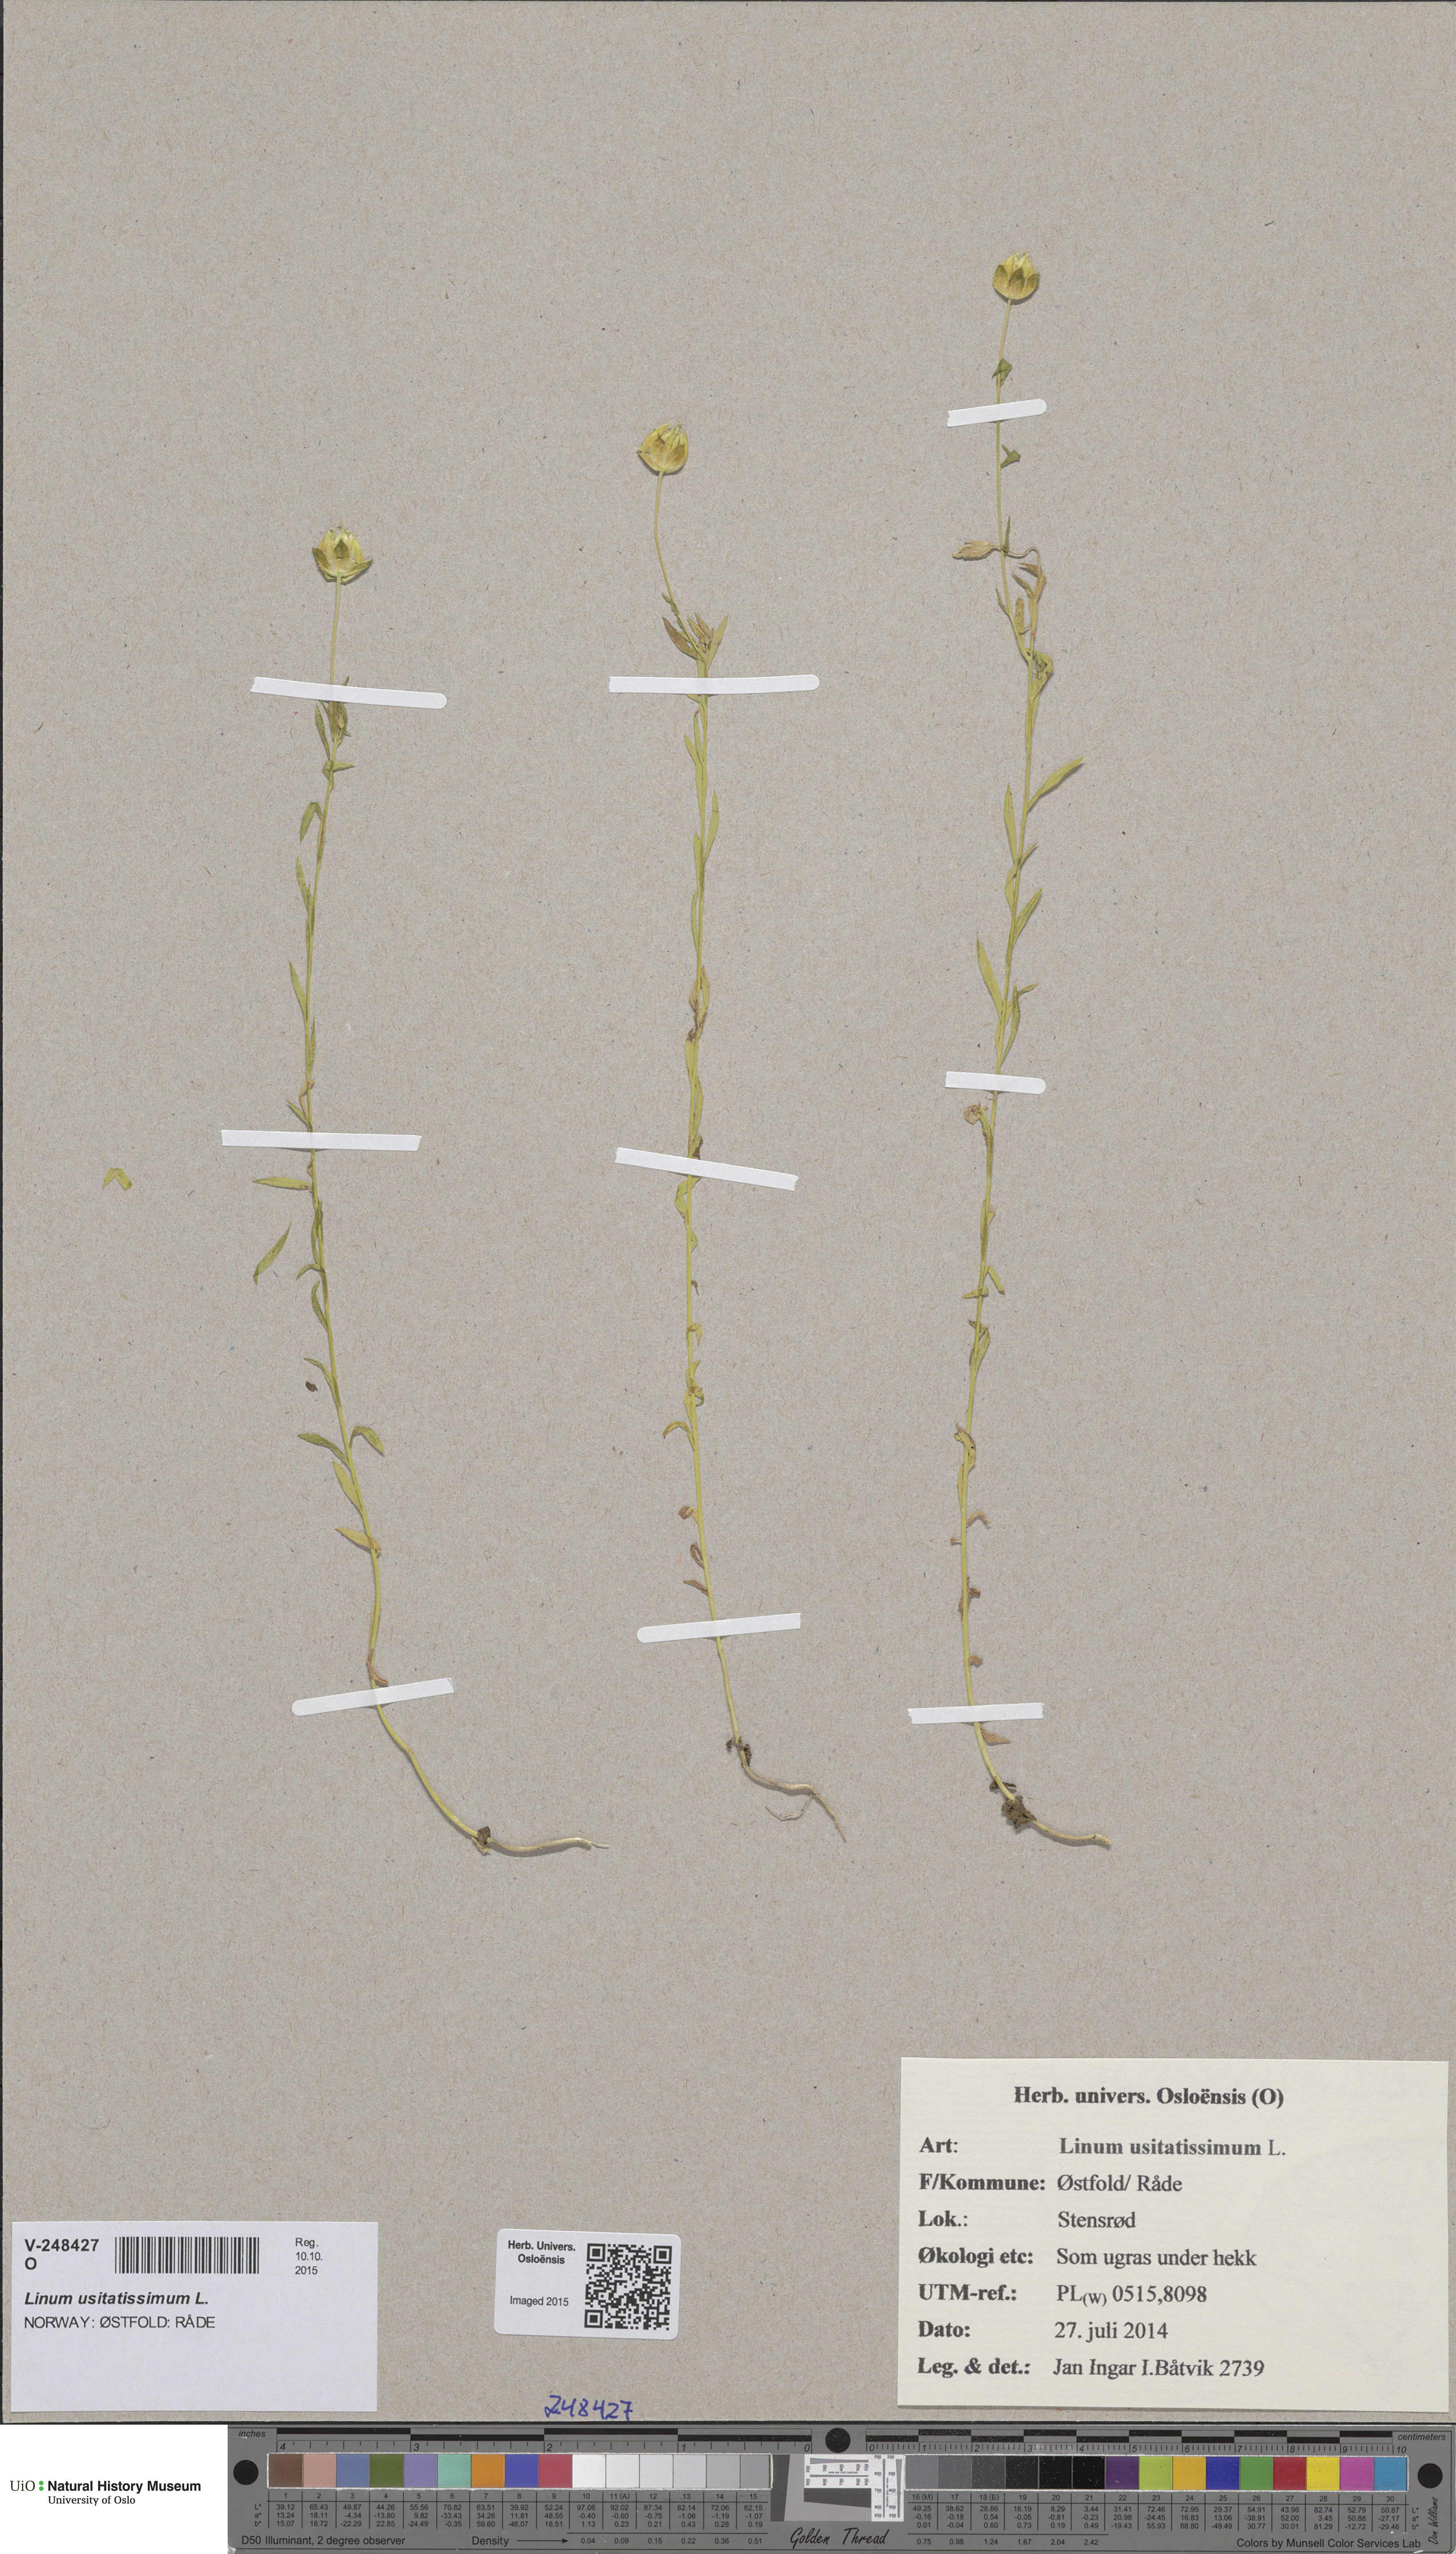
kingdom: Plantae
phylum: Tracheophyta
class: Magnoliopsida
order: Malpighiales
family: Linaceae
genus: Linum
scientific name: Linum usitatissimum
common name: Flax
